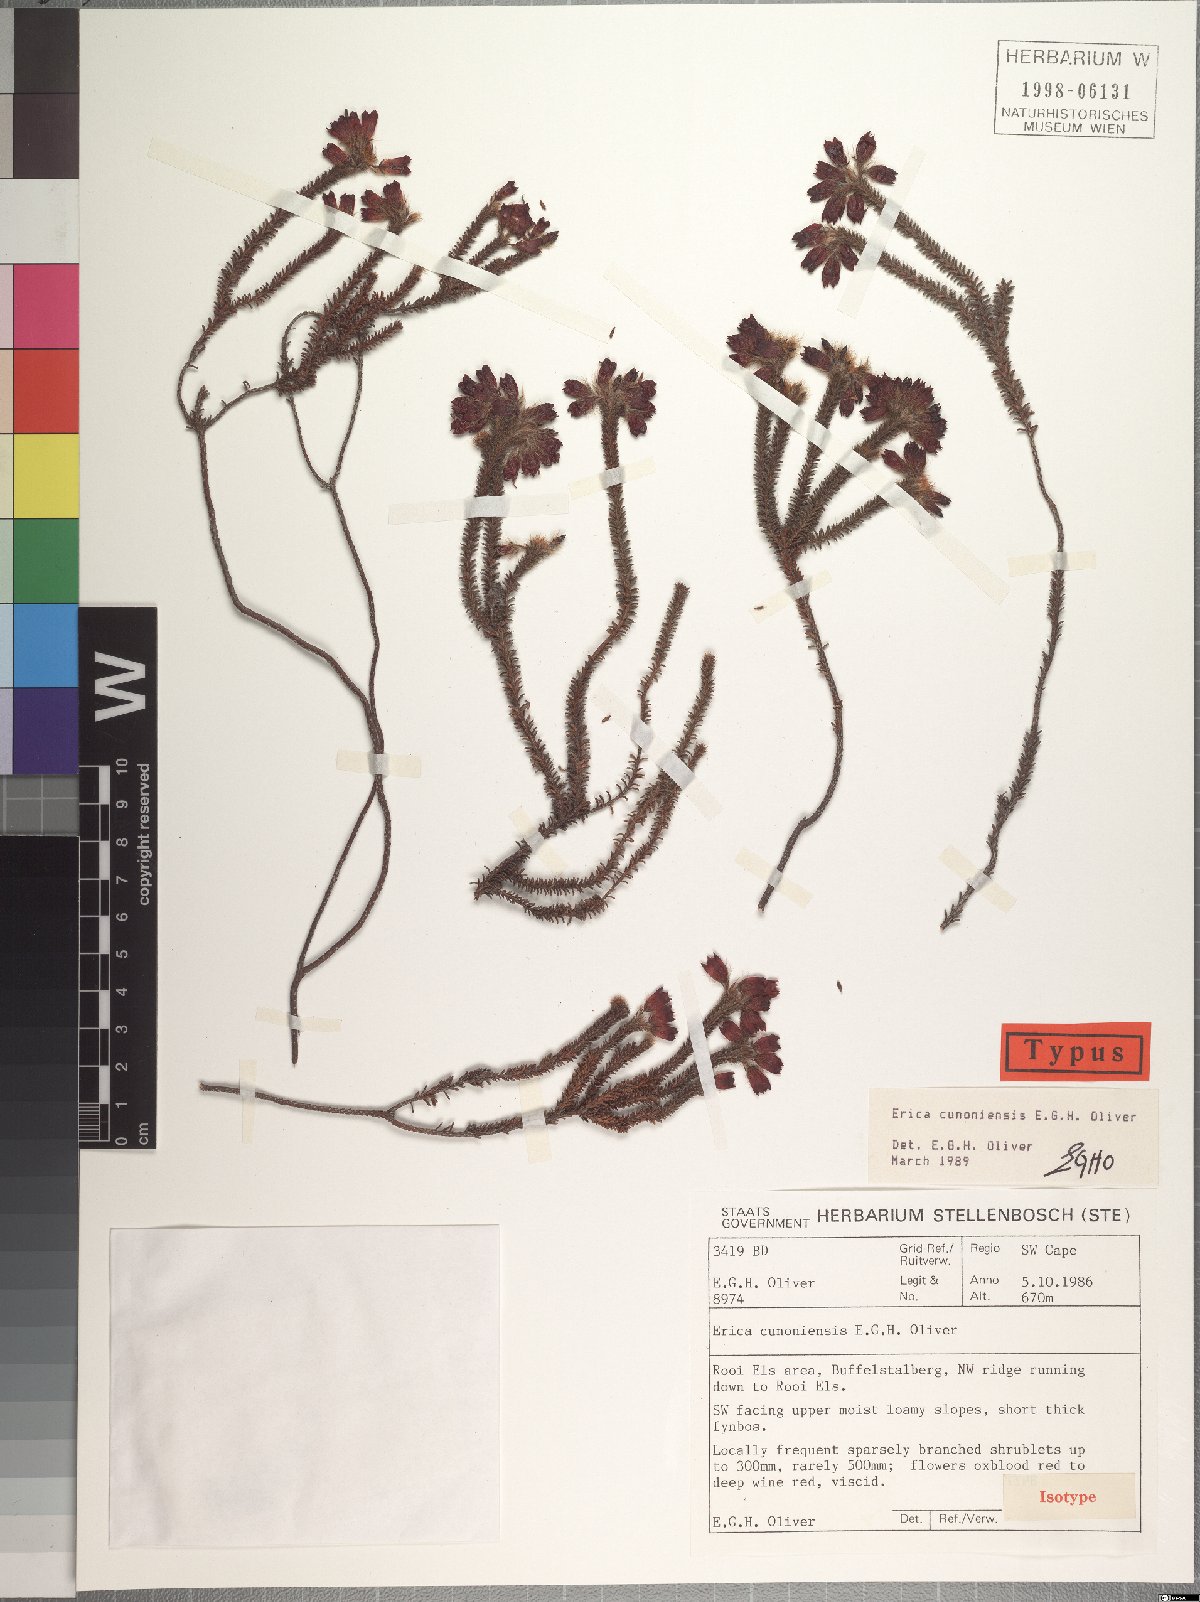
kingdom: Plantae
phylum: Tracheophyta
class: Magnoliopsida
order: Ericales
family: Ericaceae
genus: Erica
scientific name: Erica cunoniensis
